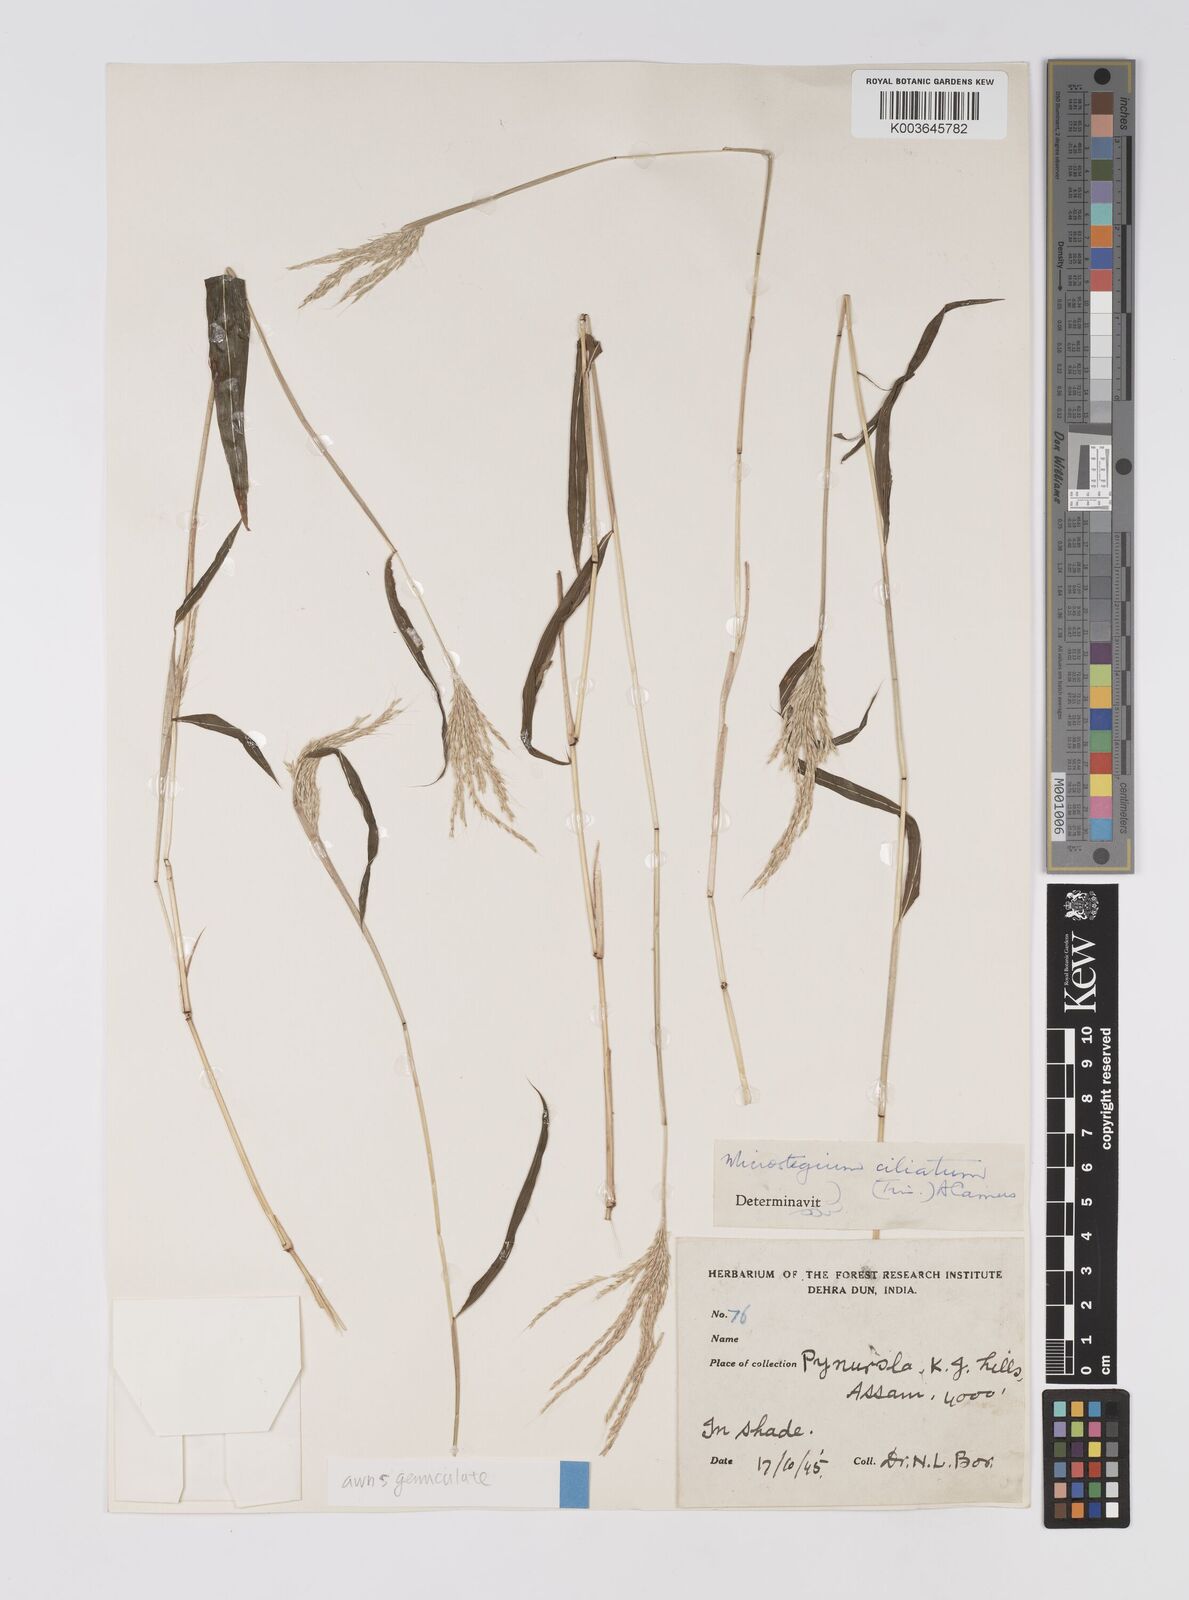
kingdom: Plantae
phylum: Tracheophyta
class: Liliopsida
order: Poales
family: Poaceae
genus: Microstegium
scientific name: Microstegium fasciculatum
